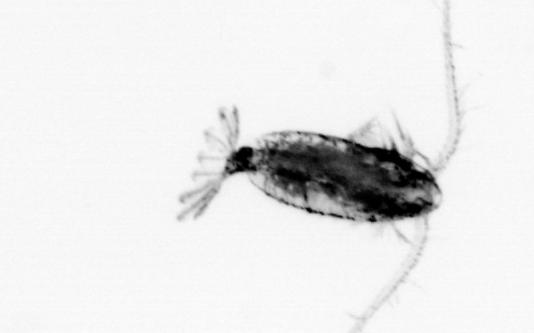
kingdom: Animalia
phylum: Arthropoda
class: Copepoda
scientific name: Copepoda
